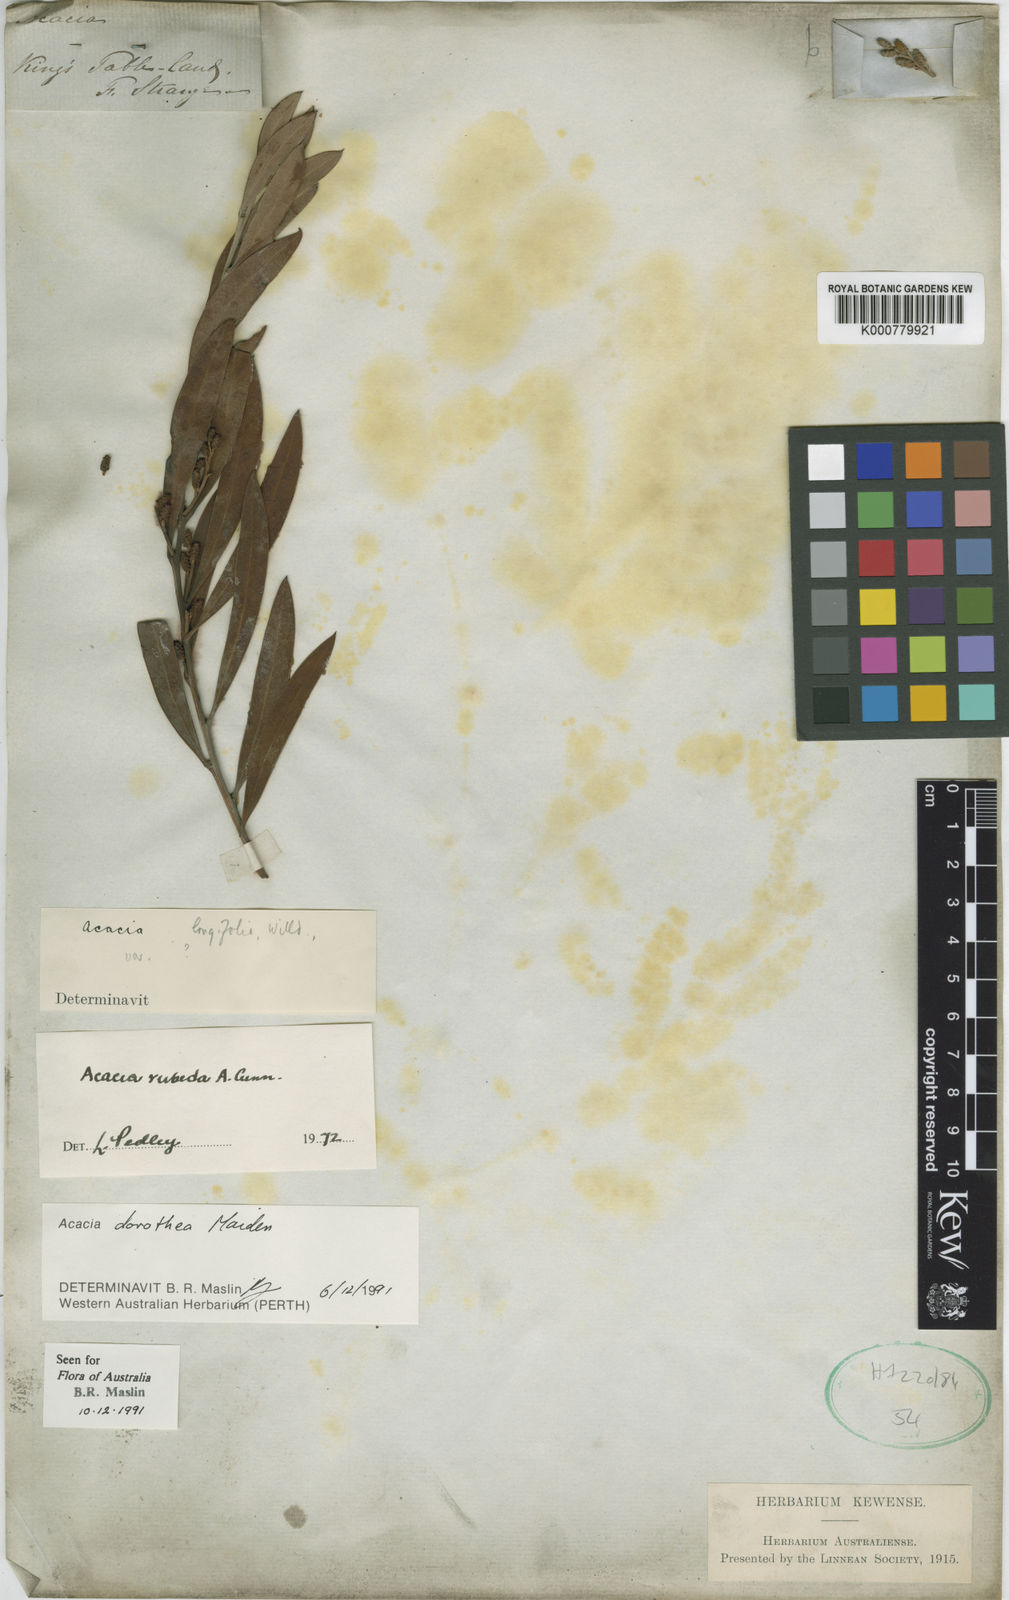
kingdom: Plantae
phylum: Tracheophyta
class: Magnoliopsida
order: Fabales
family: Fabaceae
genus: Acacia
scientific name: Acacia rubida
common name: Red leaf wattle
